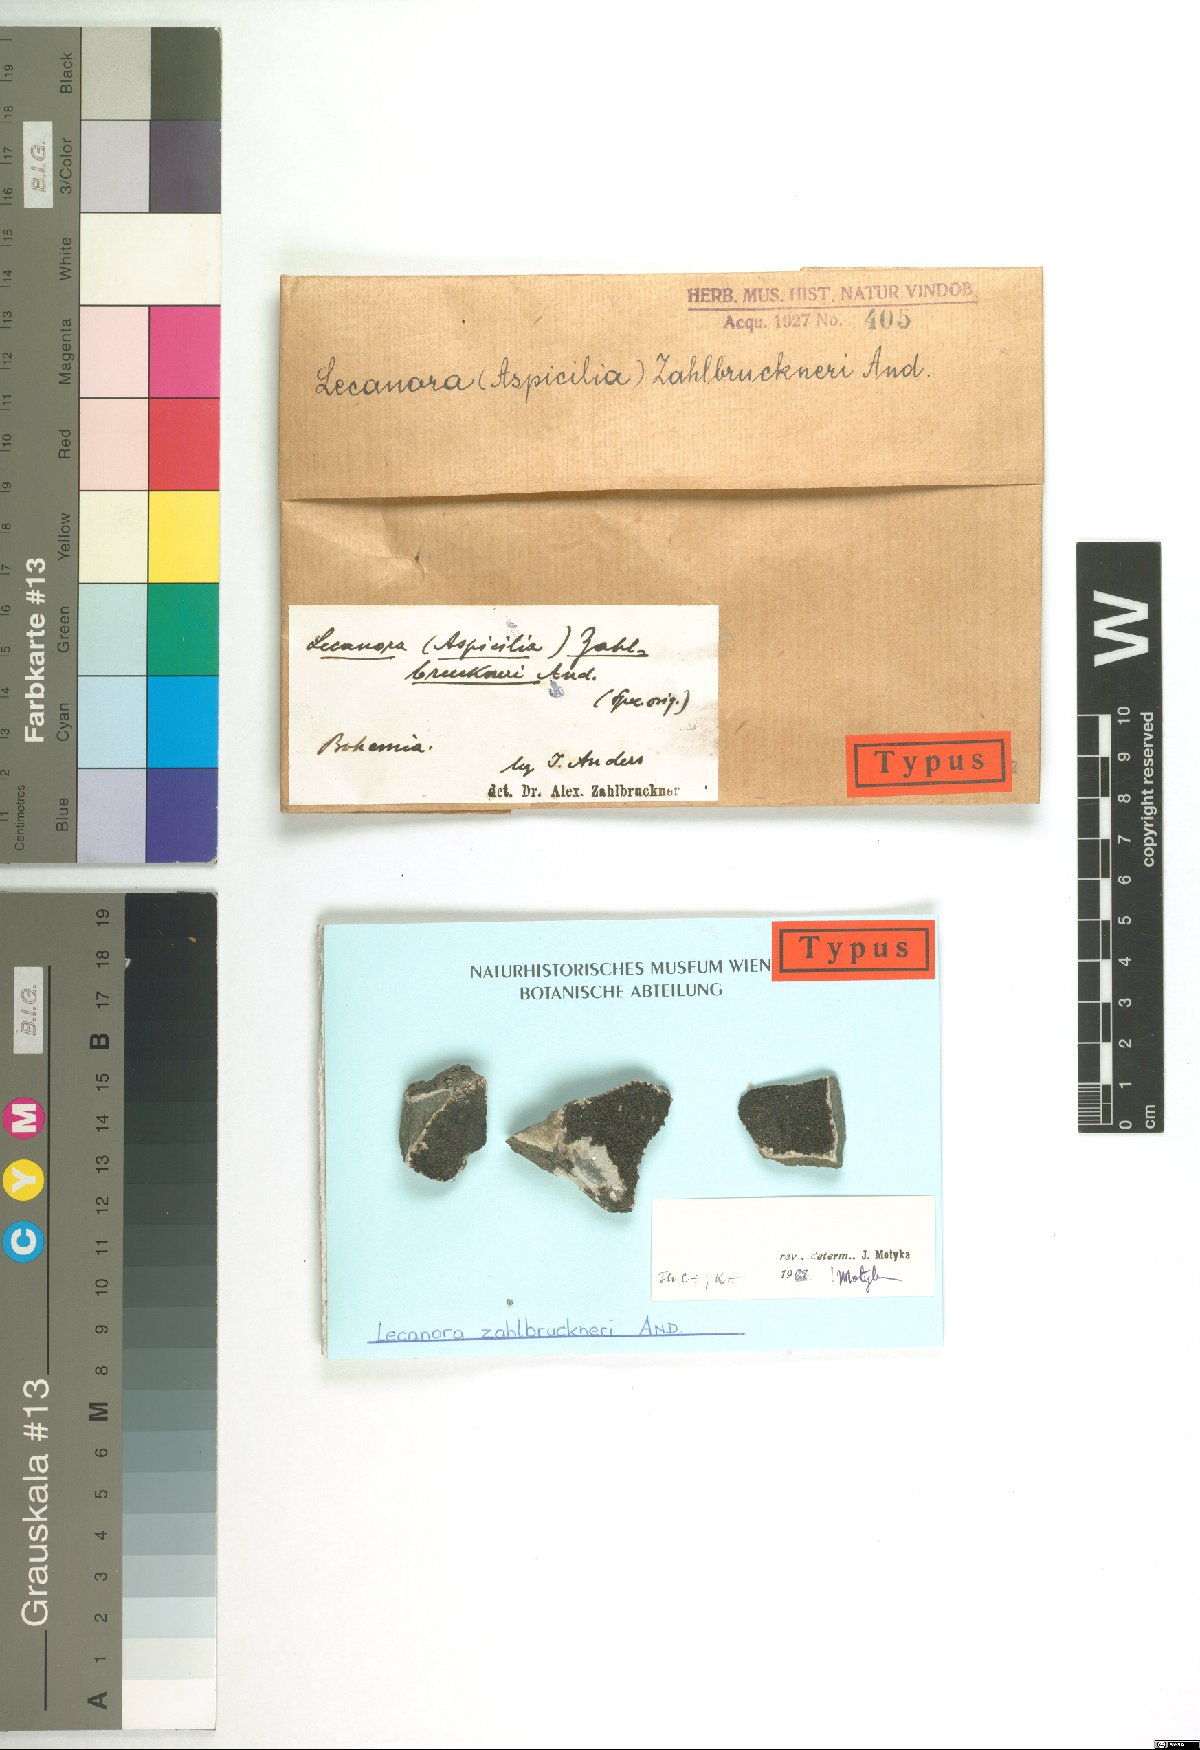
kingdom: Fungi
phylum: Ascomycota
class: Lecanoromycetes
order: Lecanorales
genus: Aspilidea
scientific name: Aspilidea myrinii
